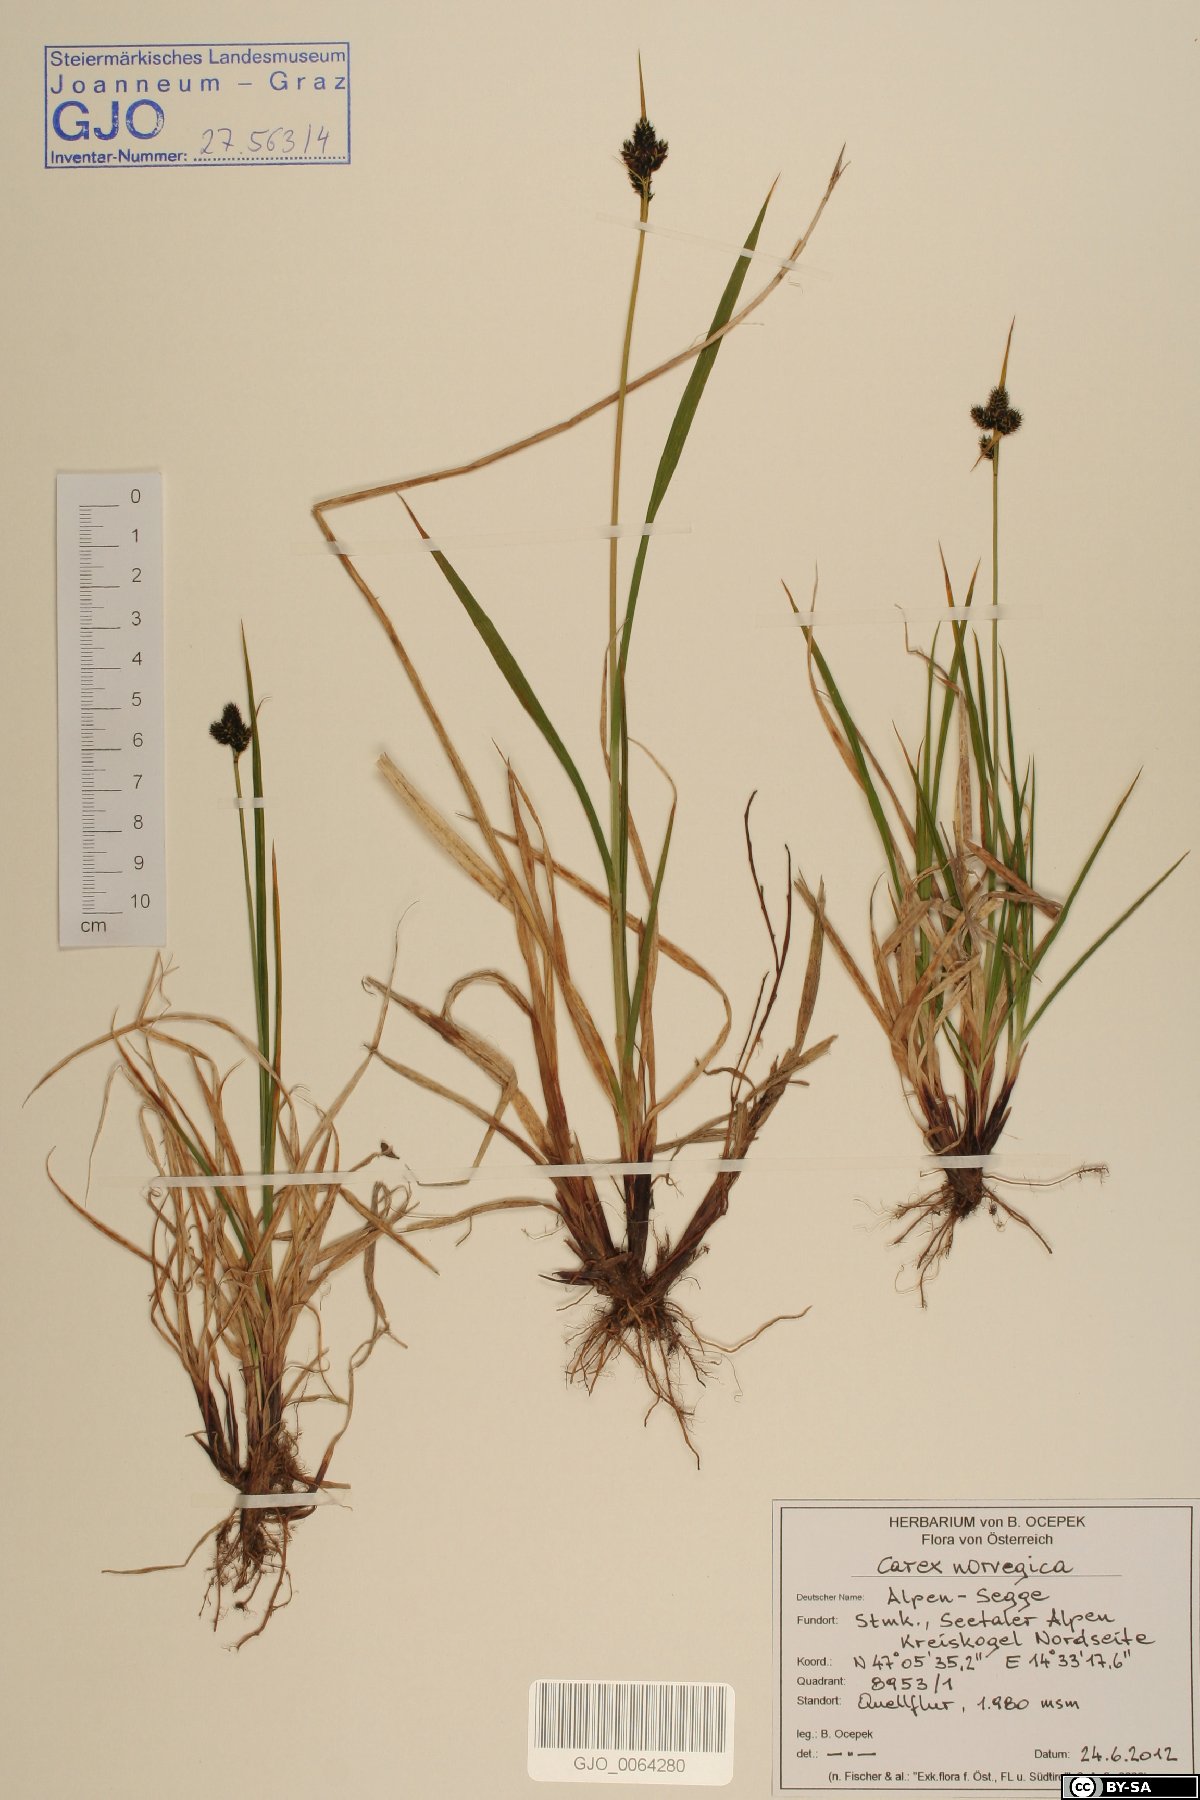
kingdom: Plantae
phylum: Tracheophyta
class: Liliopsida
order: Poales
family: Cyperaceae
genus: Carex
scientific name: Carex norvegica
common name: Close-headed alpine-sedge
